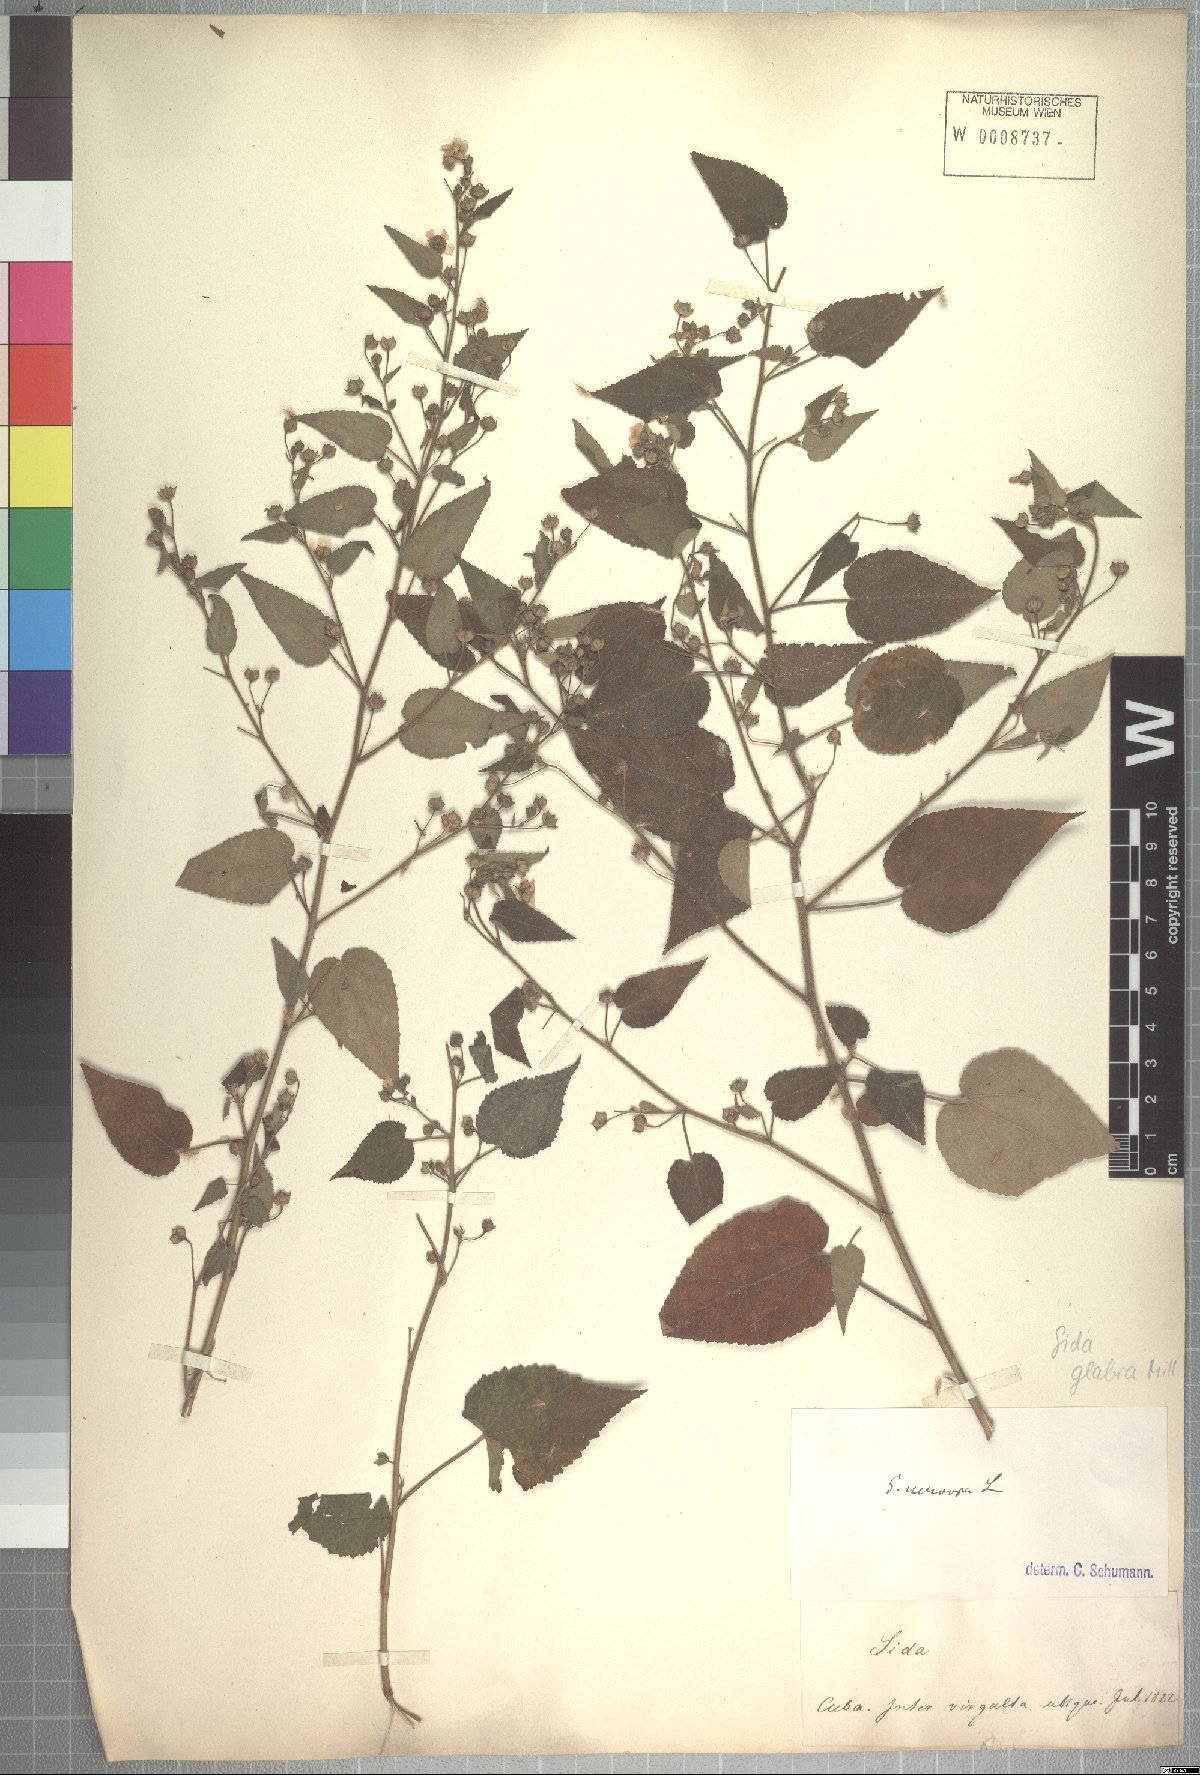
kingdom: Plantae
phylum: Tracheophyta
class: Magnoliopsida
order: Malvales
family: Malvaceae
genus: Sida
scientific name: Sida glabra
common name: Smooth fanpetals
